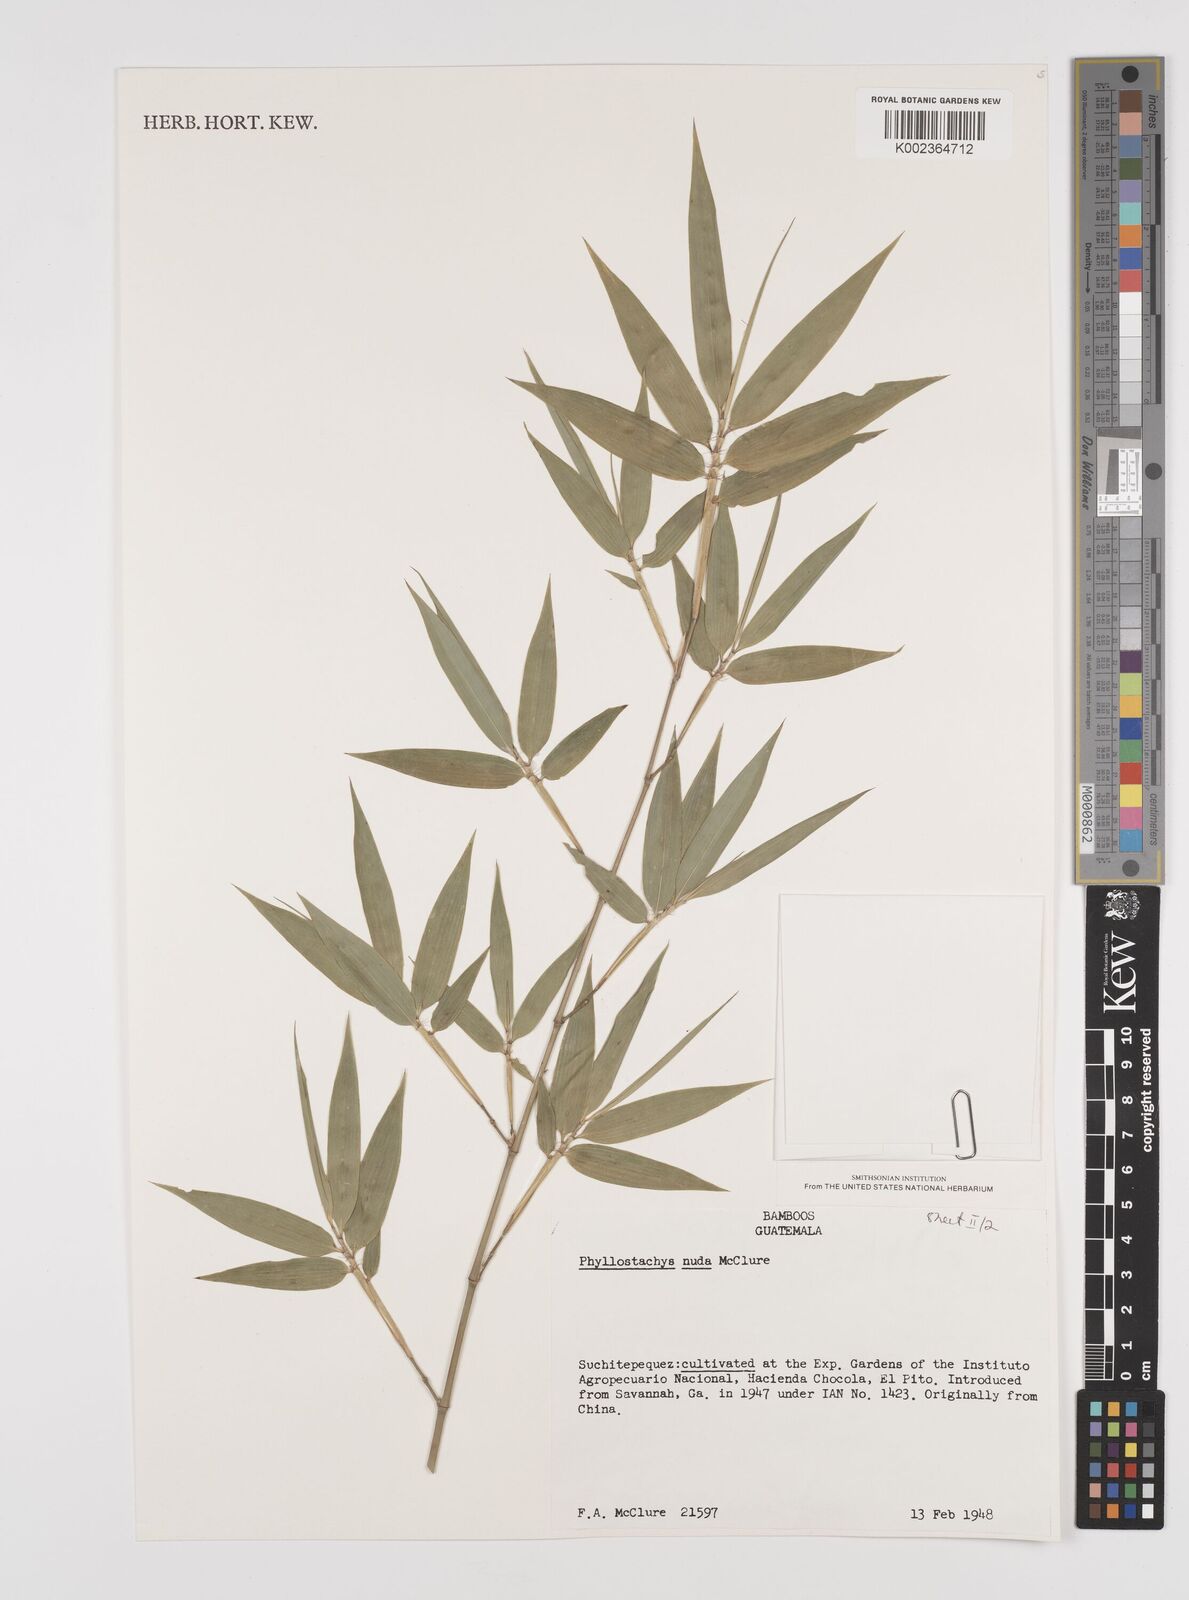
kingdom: Plantae
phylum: Tracheophyta
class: Liliopsida
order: Poales
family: Poaceae
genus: Phyllostachys
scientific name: Phyllostachys nuda
